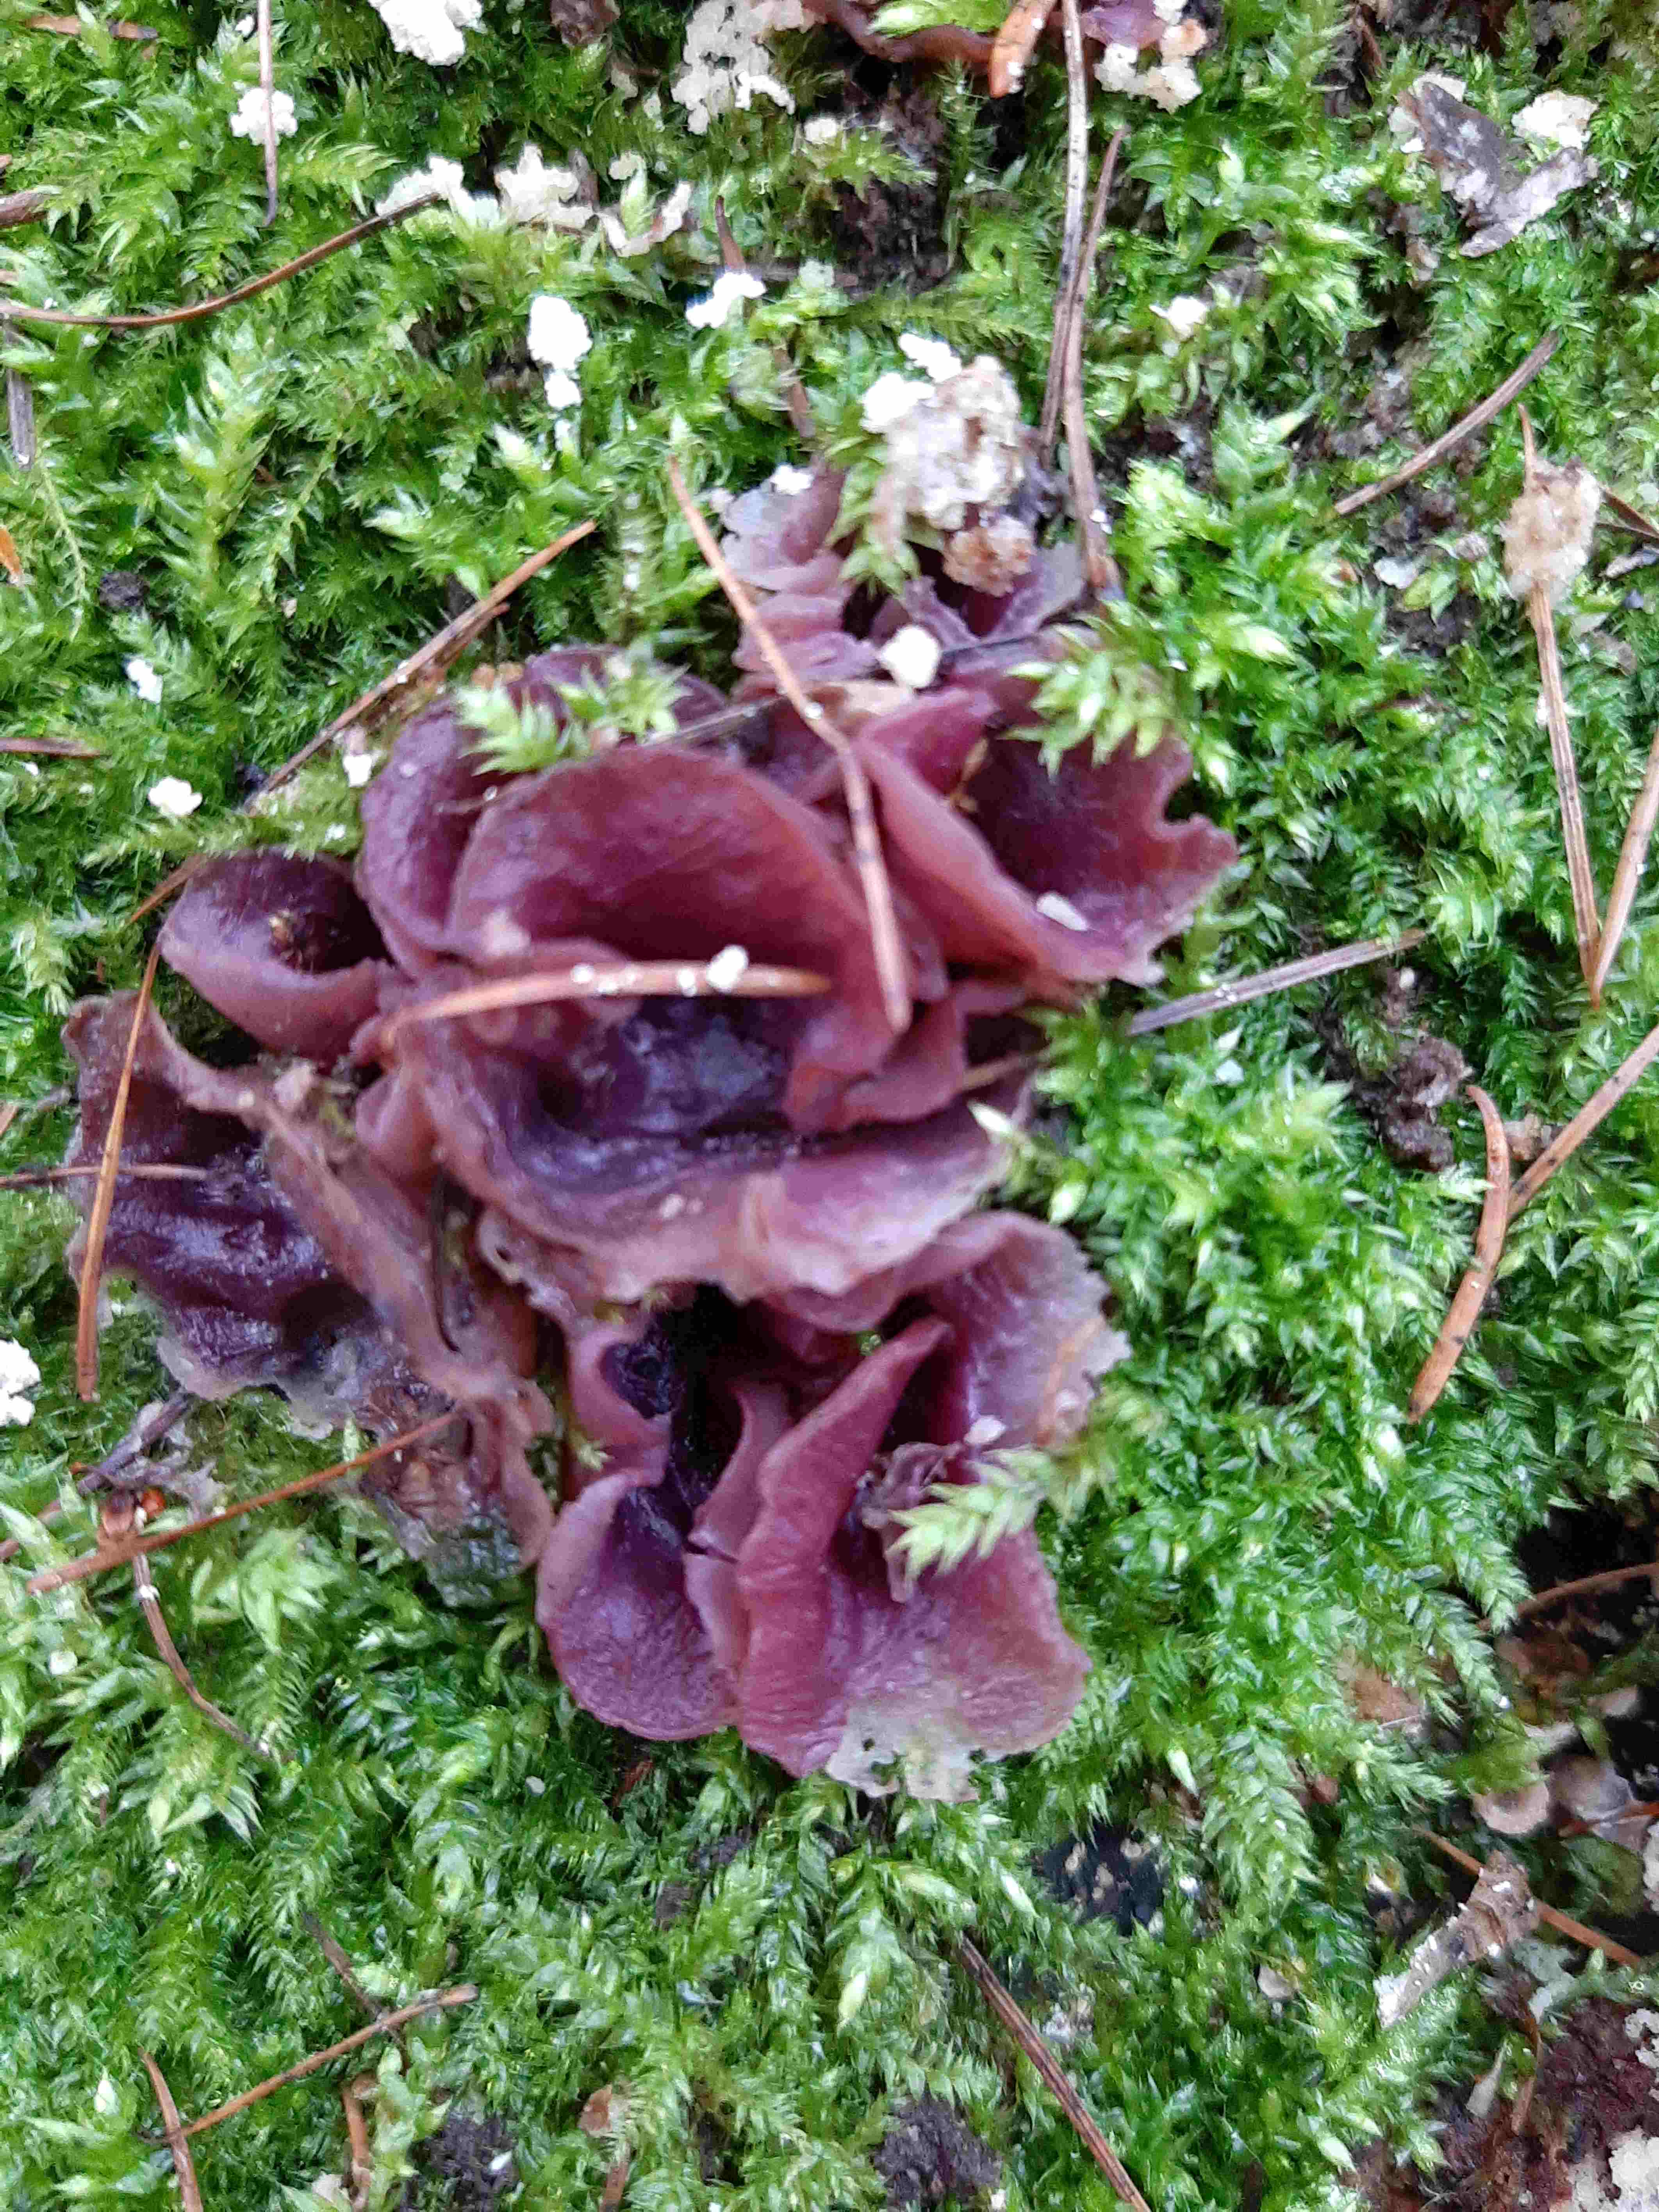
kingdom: Fungi
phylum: Ascomycota
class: Leotiomycetes
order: Helotiales
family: Gelatinodiscaceae
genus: Ascocoryne
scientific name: Ascocoryne
